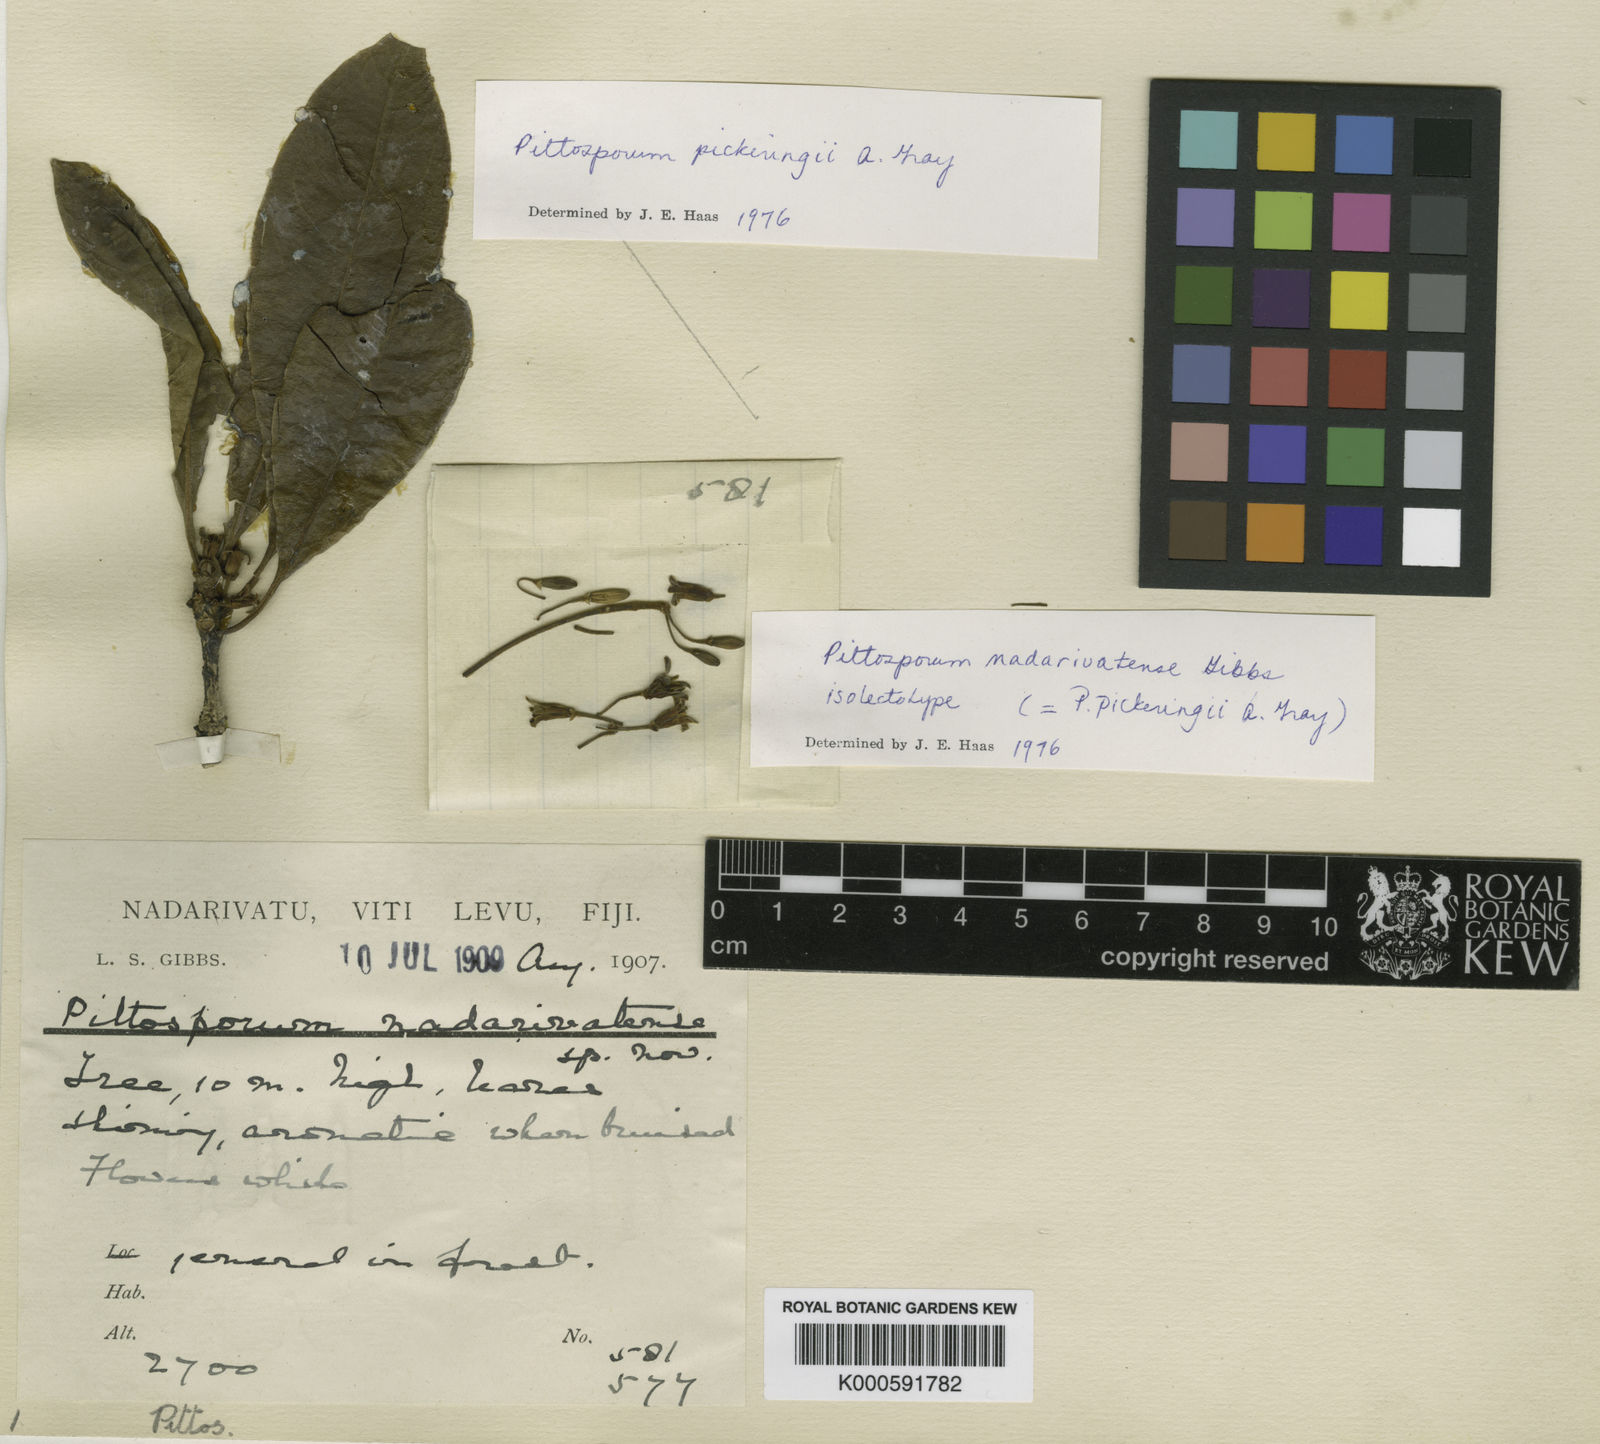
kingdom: Plantae
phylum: Tracheophyta
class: Magnoliopsida
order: Apiales
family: Pittosporaceae
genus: Pittosporum
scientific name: Pittosporum pickeringii
